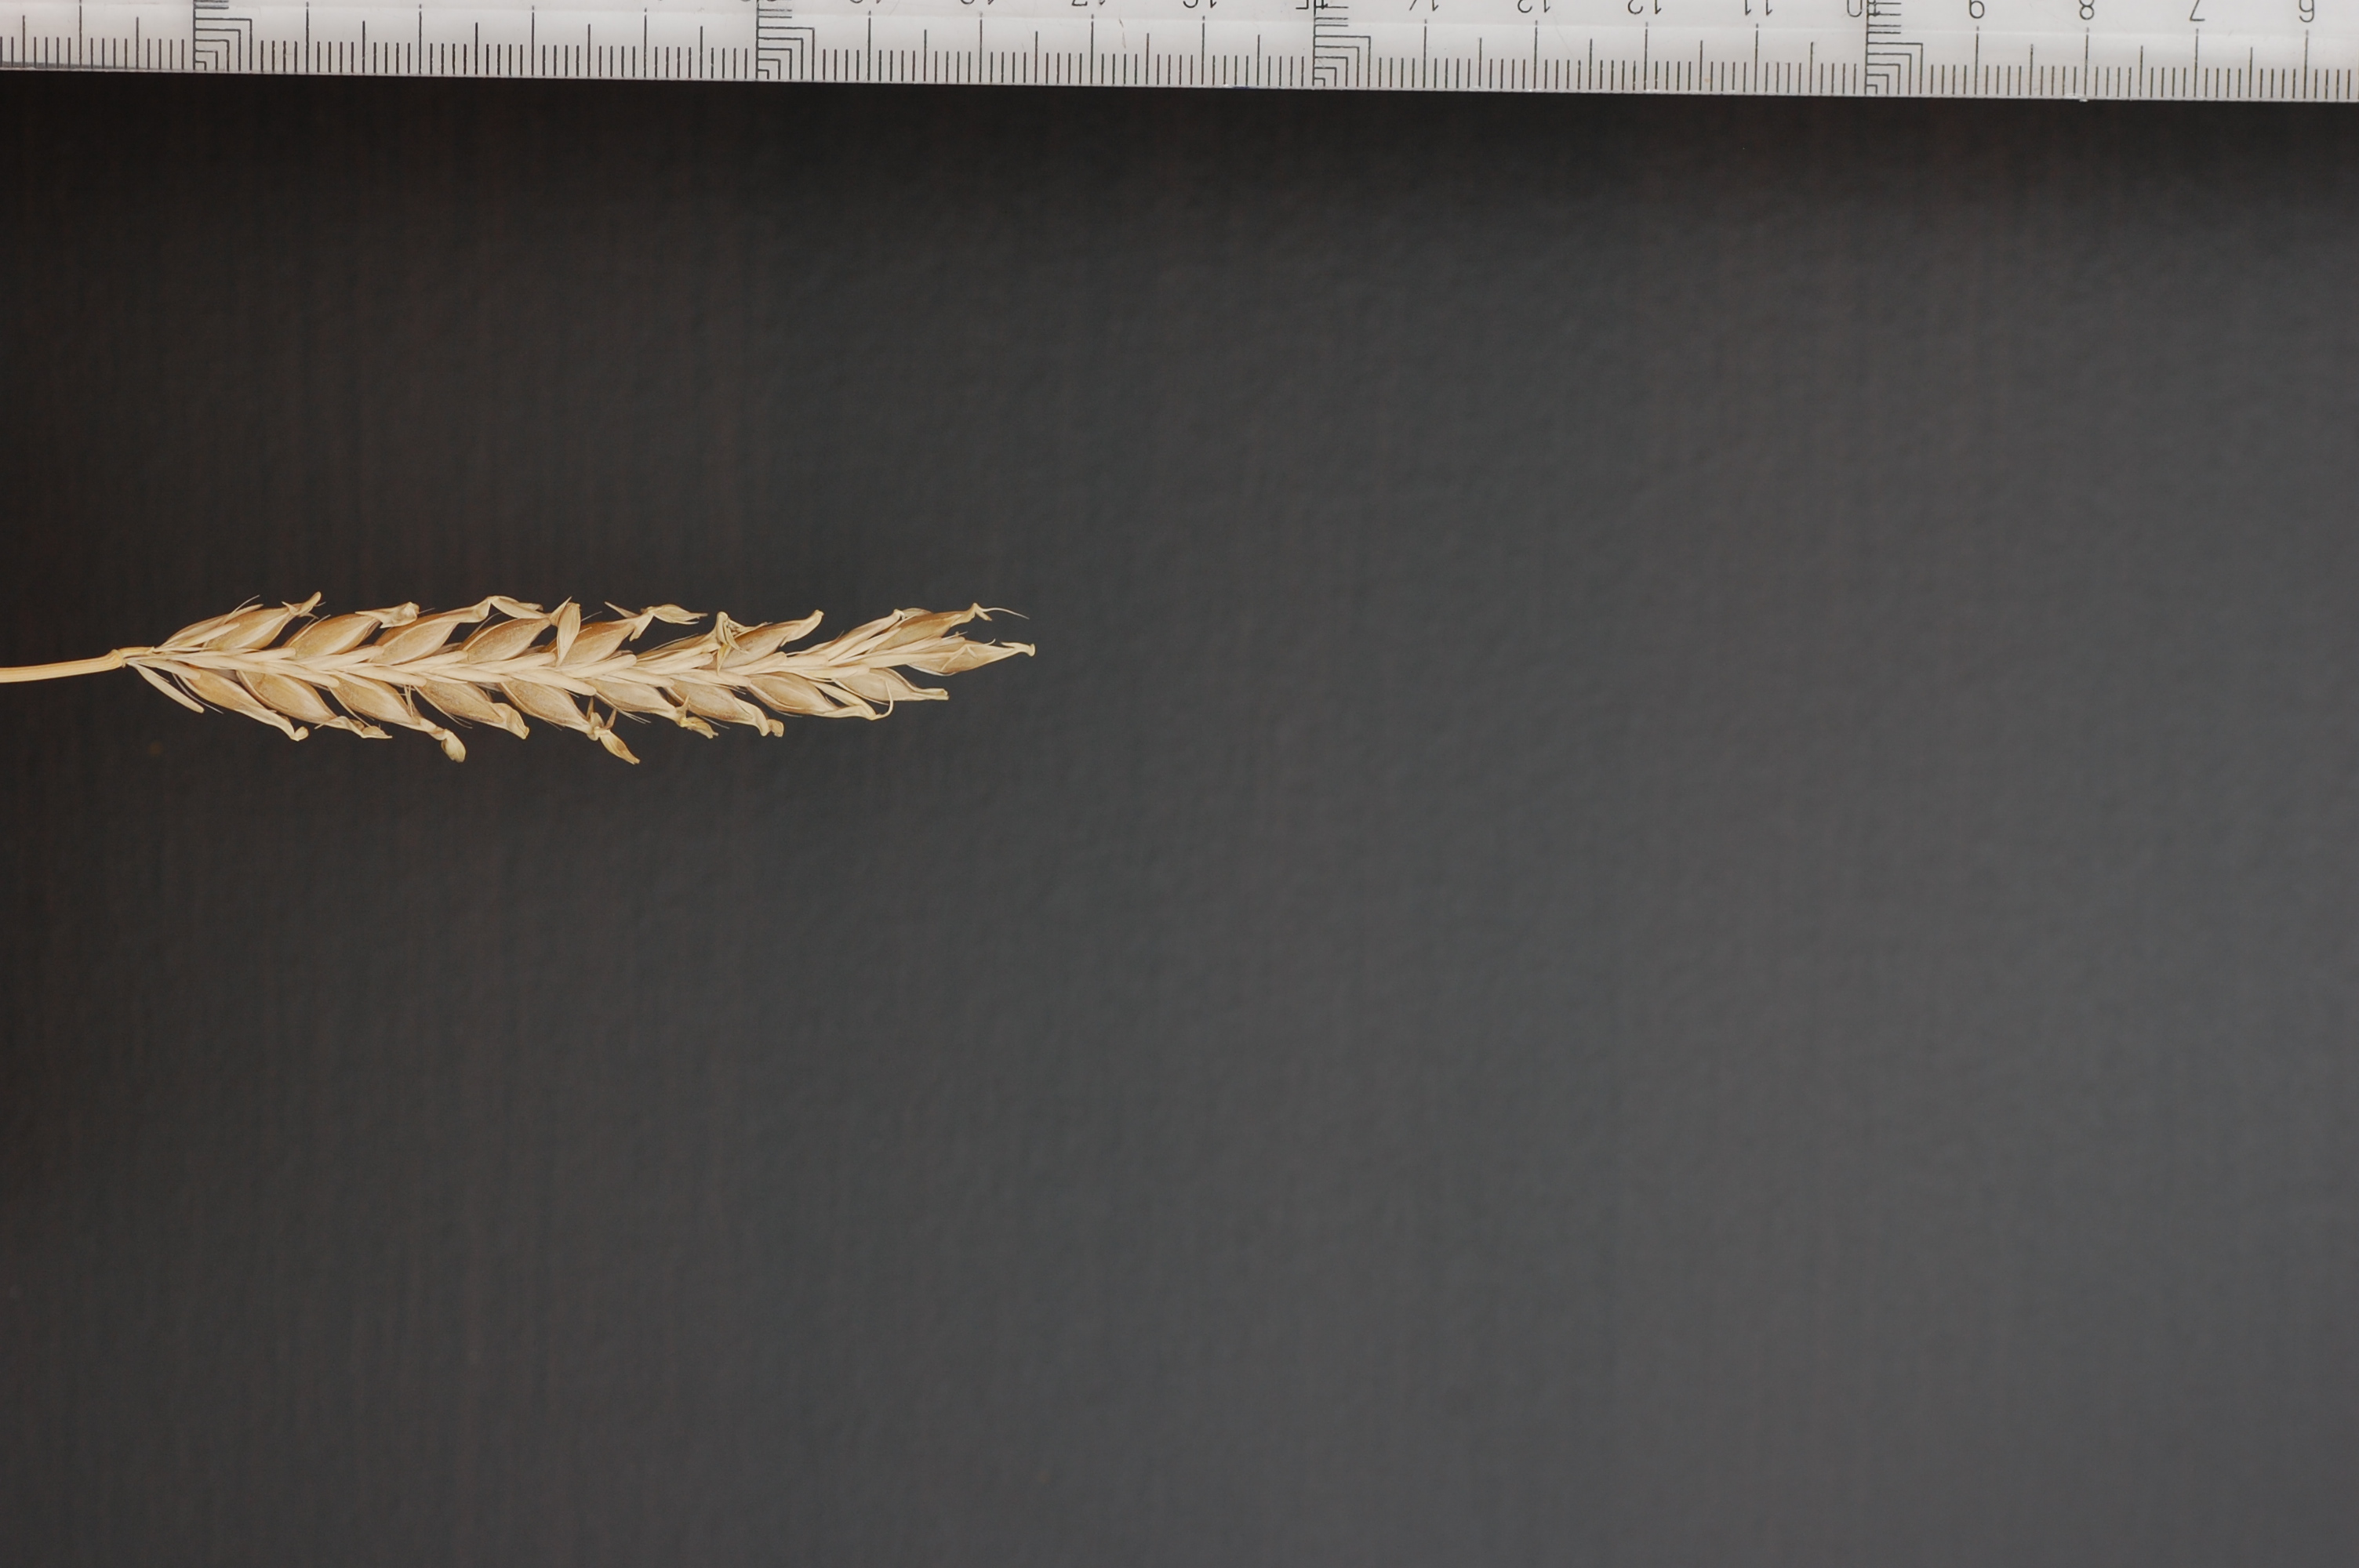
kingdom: Plantae
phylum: Tracheophyta
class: Liliopsida
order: Poales
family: Poaceae
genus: Hordeum
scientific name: Hordeum vulgare
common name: Common barley
